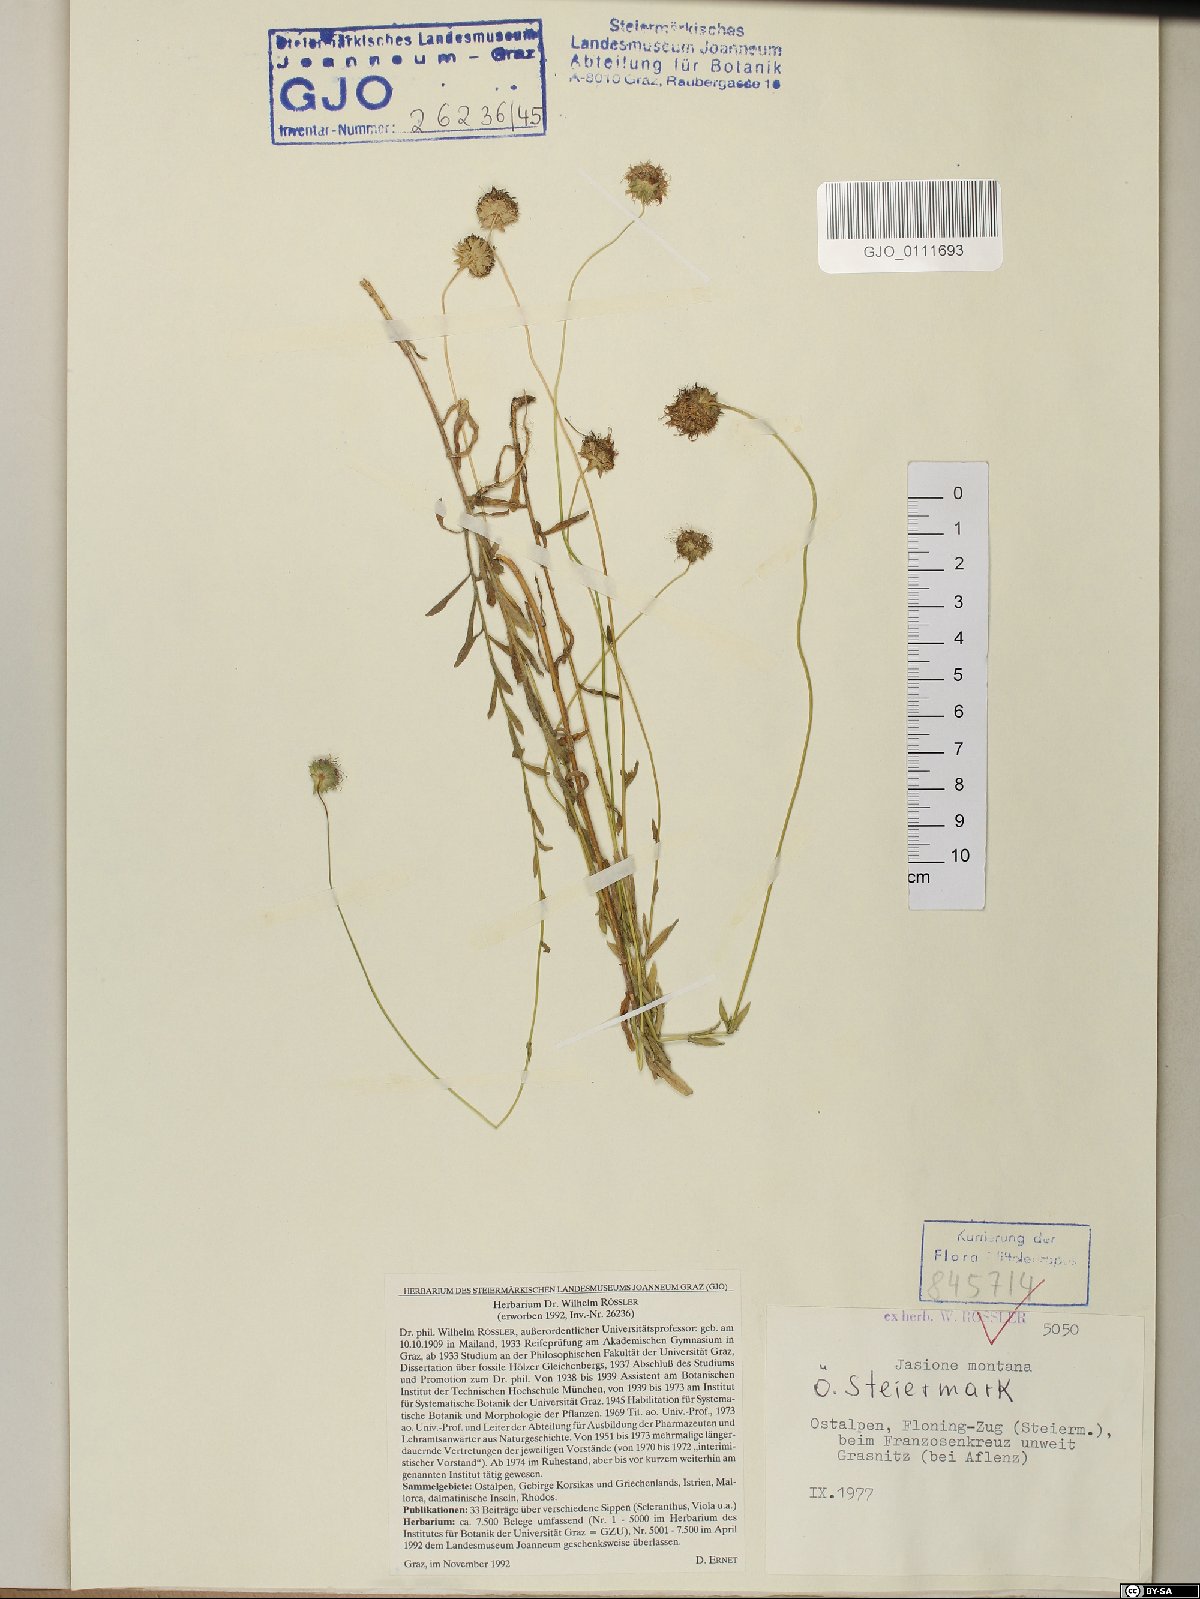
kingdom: Plantae
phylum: Tracheophyta
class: Magnoliopsida
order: Asterales
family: Campanulaceae
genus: Jasione
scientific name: Jasione montana
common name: Sheep's-bit
